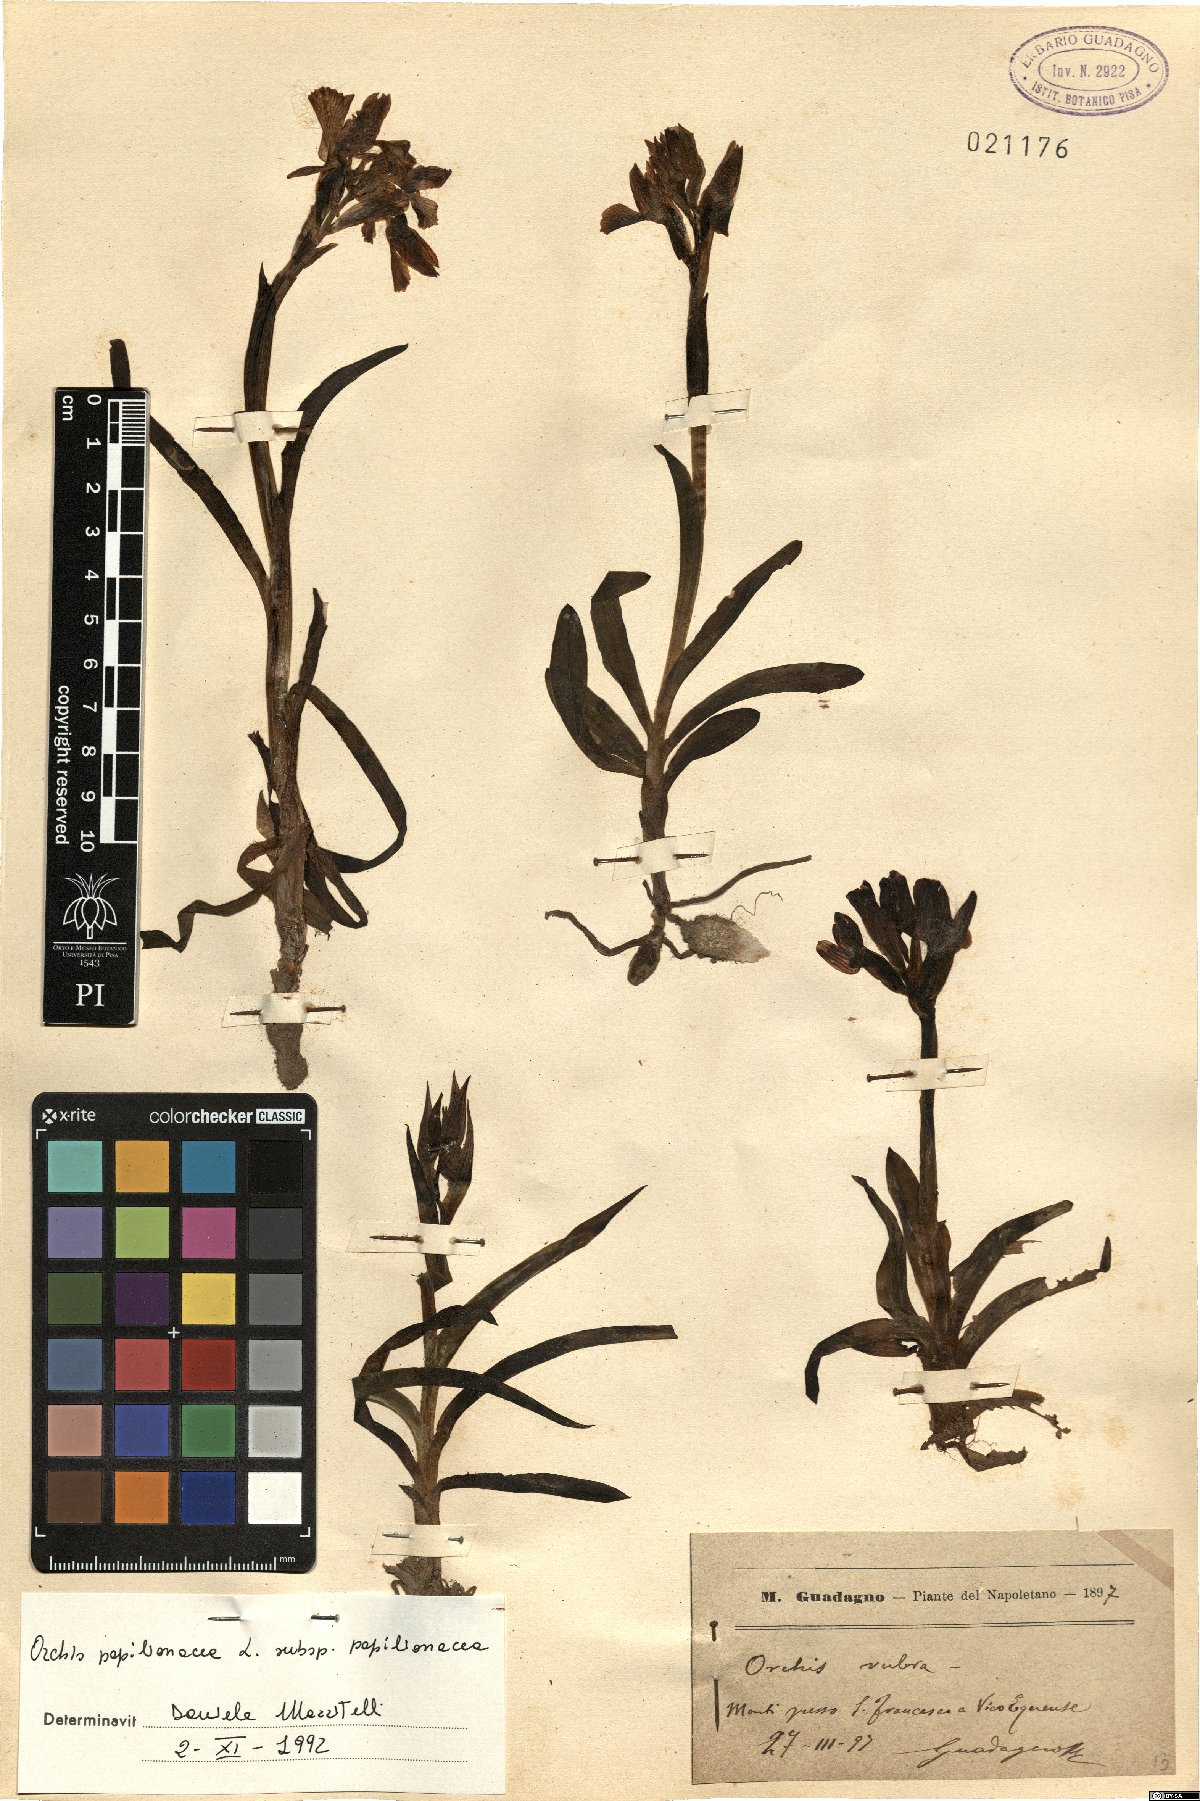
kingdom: Plantae
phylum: Tracheophyta
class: Liliopsida
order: Asparagales
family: Orchidaceae
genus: Anacamptis
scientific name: Anacamptis papilionacea
